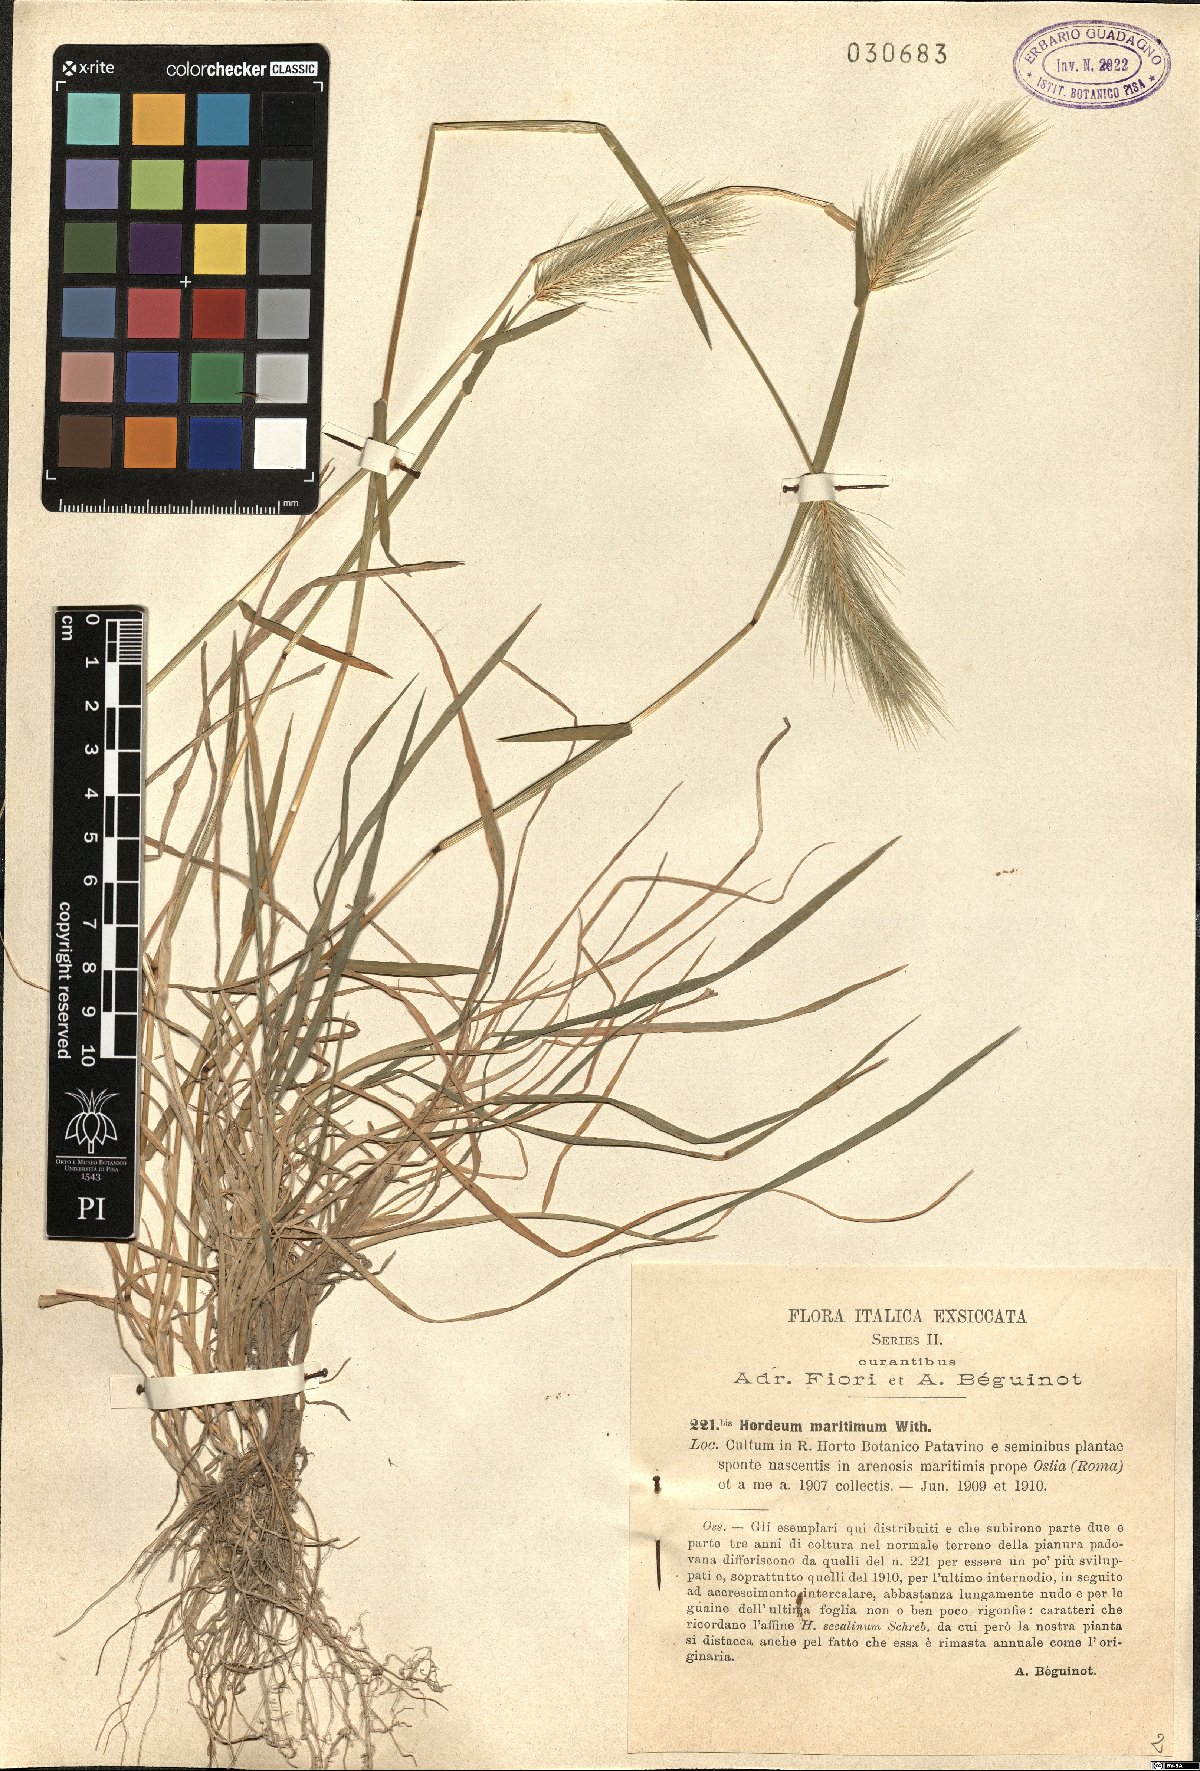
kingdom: Plantae
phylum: Tracheophyta
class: Liliopsida
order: Poales
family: Poaceae
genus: Hordeum
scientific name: Hordeum marinum
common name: Sea barley
